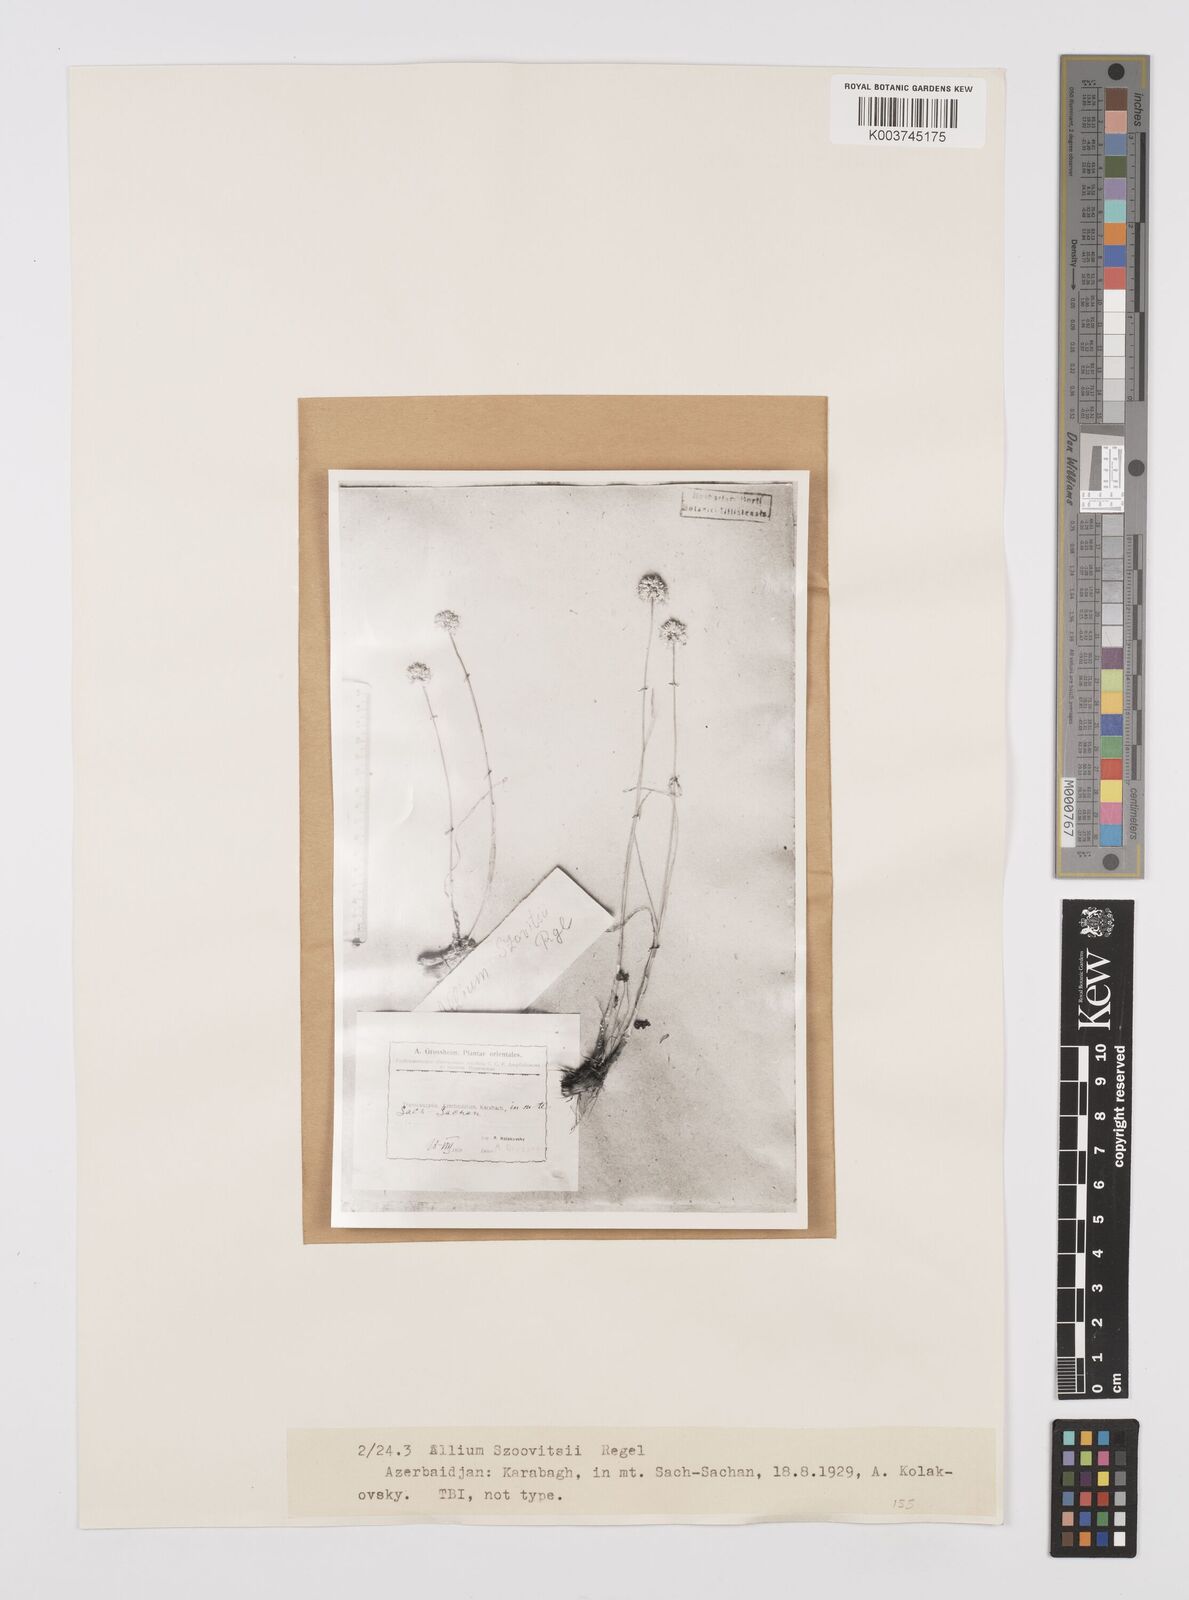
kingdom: Plantae
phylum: Tracheophyta
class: Liliopsida
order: Asparagales
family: Amaryllidaceae
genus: Allium
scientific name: Allium szovitsii
